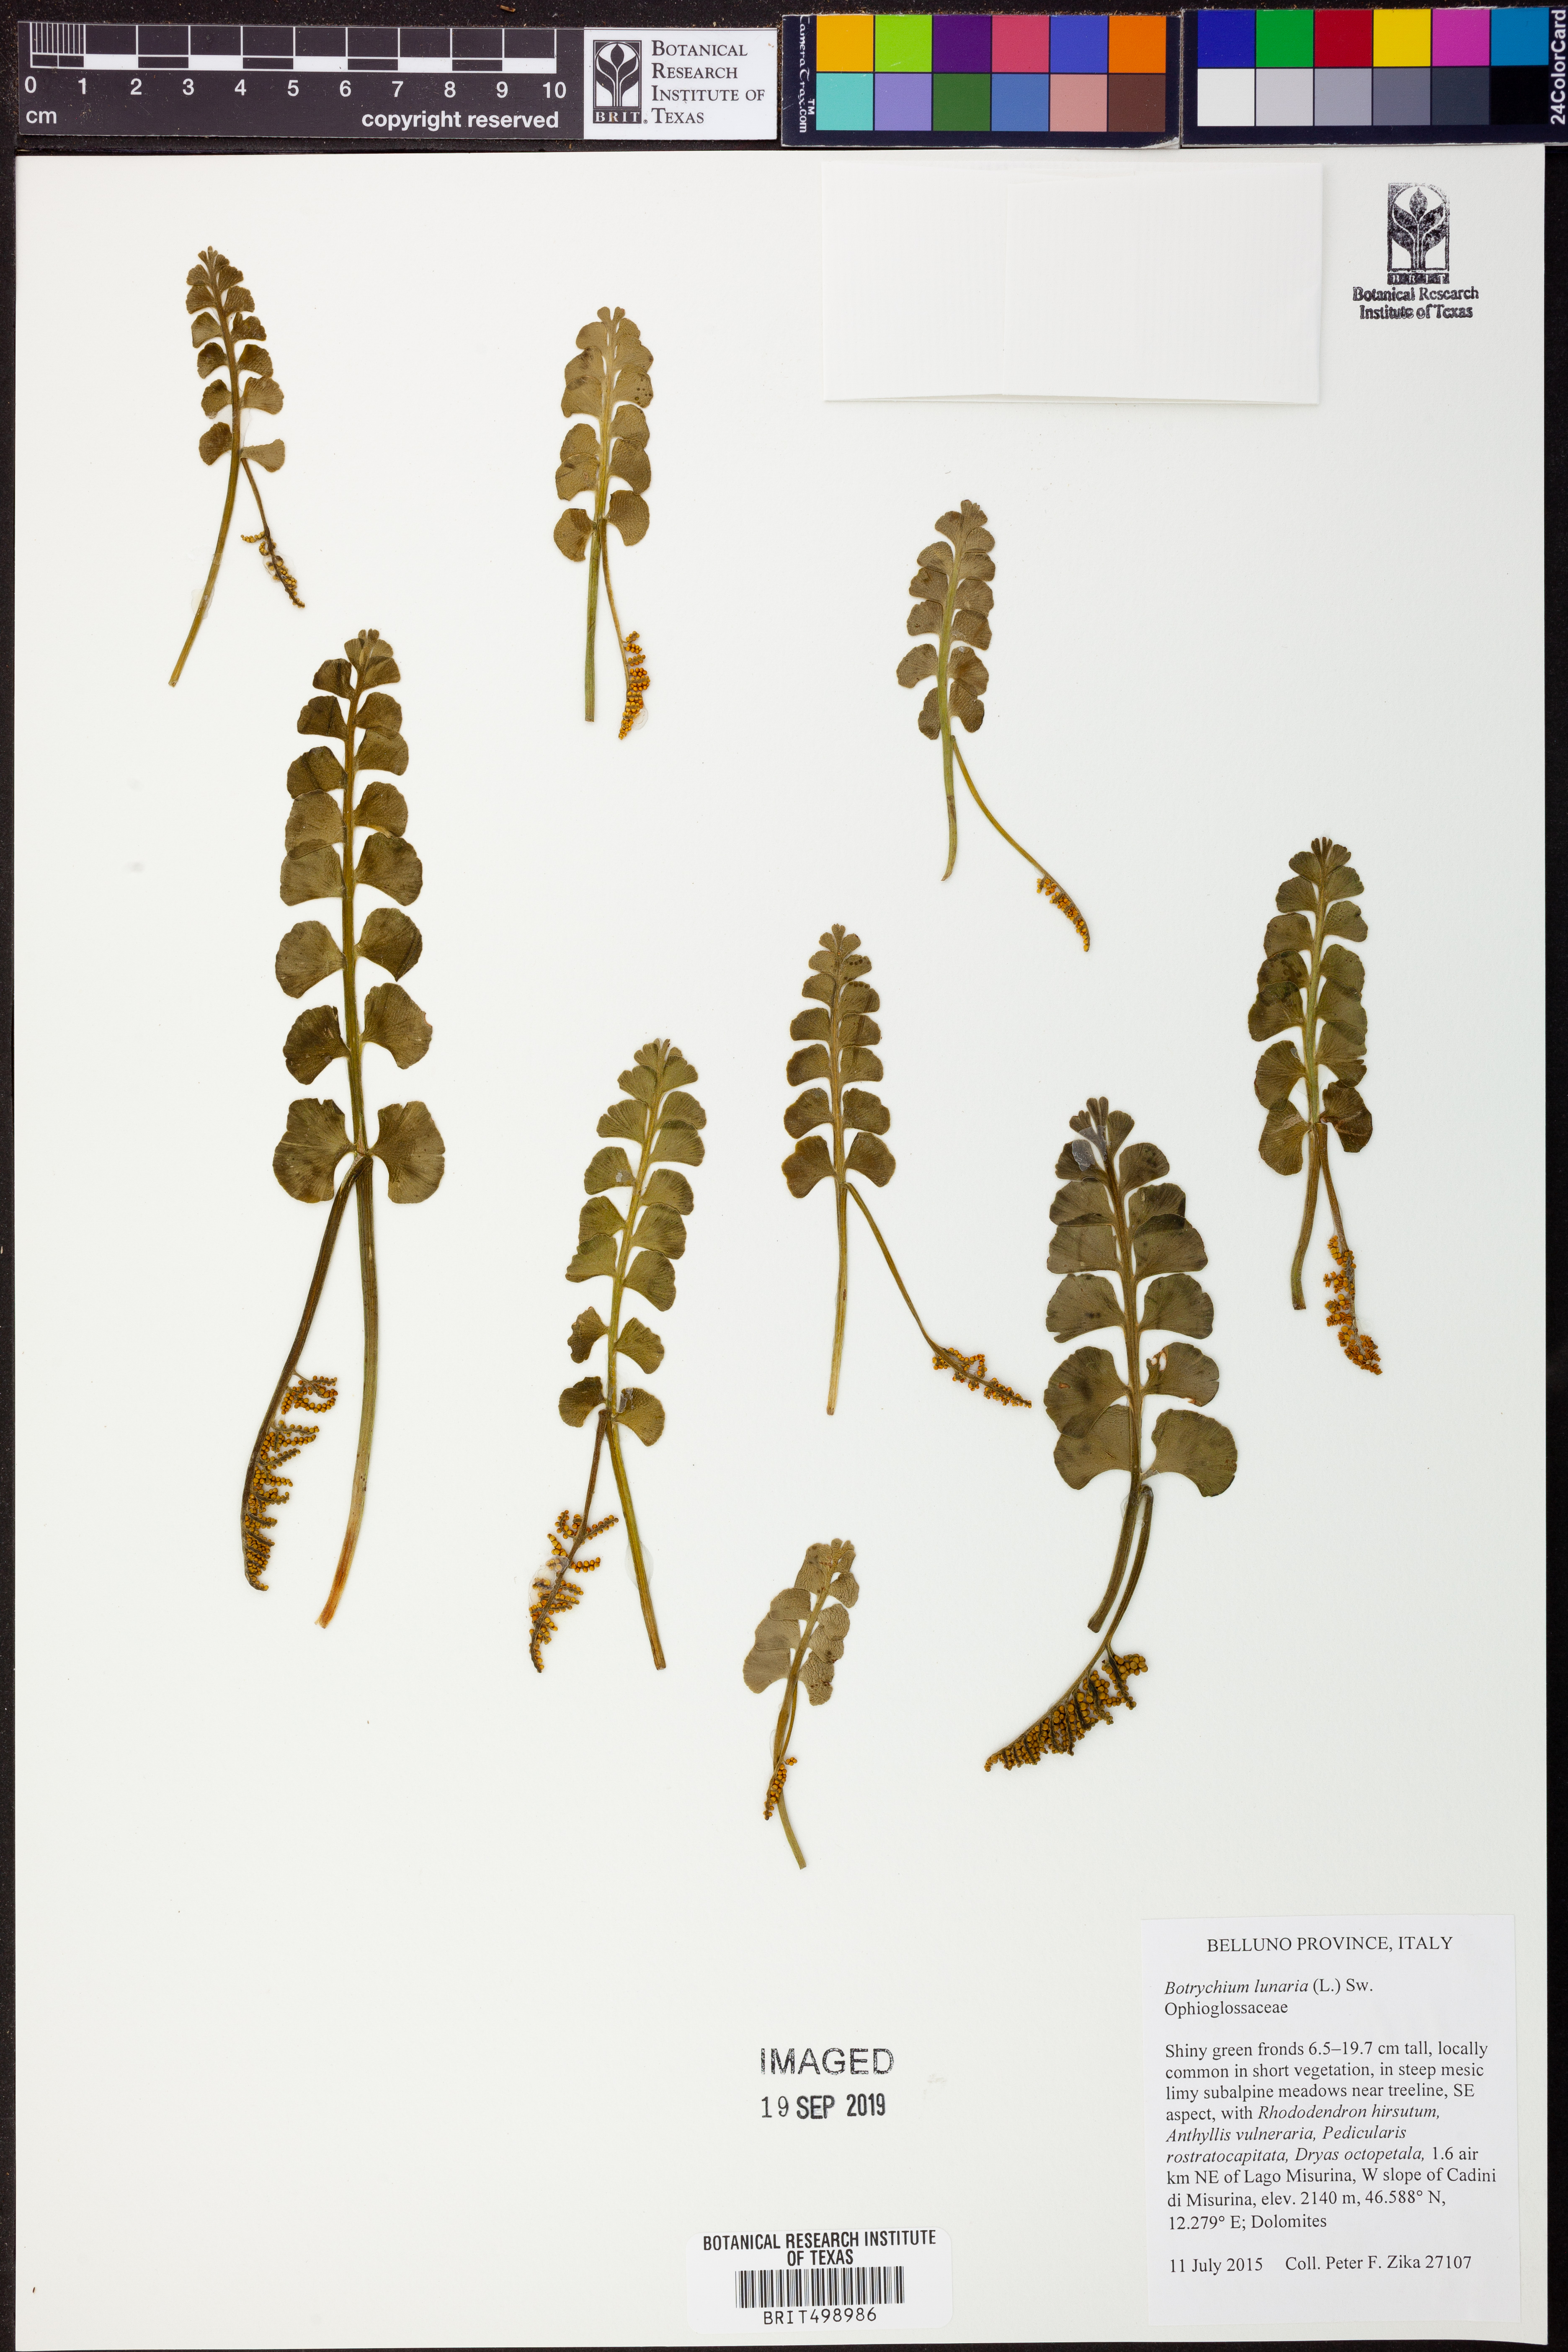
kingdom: Plantae
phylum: Tracheophyta
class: Polypodiopsida
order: Ophioglossales
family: Ophioglossaceae
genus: Botrychium
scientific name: Botrychium lunaria
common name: Moonwort
